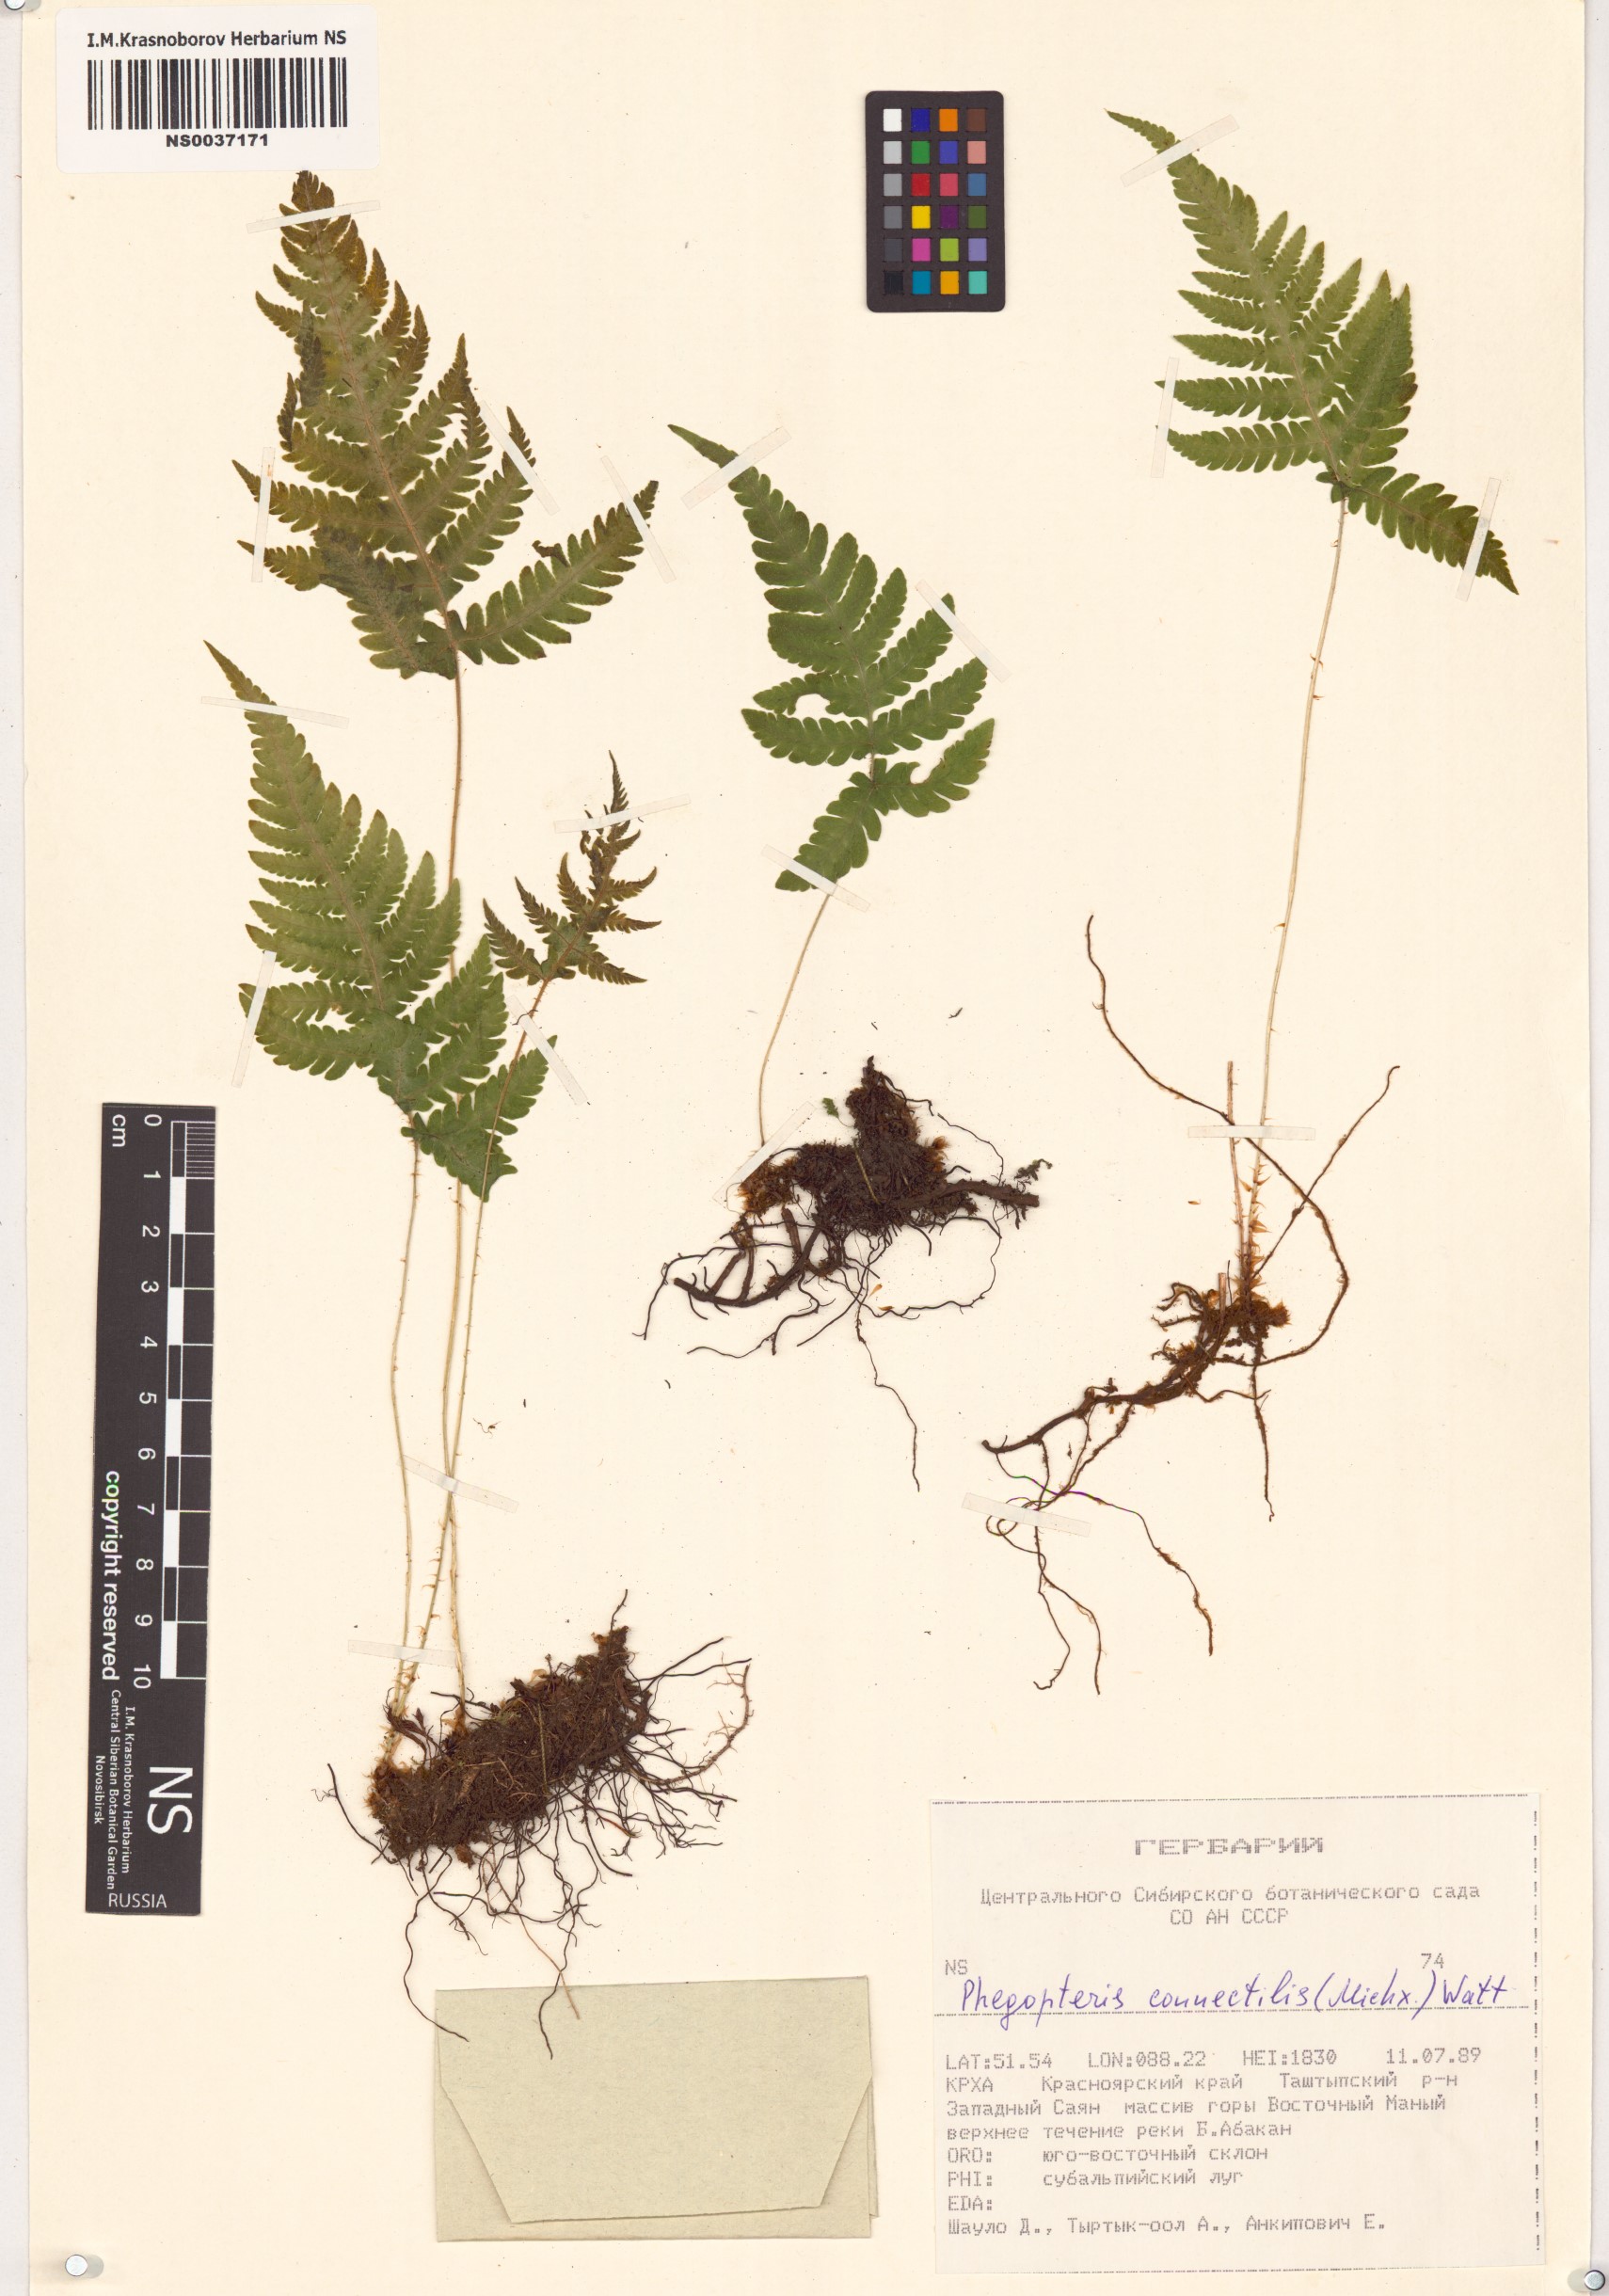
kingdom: Plantae
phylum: Tracheophyta
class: Polypodiopsida
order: Polypodiales
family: Thelypteridaceae
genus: Phegopteris
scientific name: Phegopteris connectilis
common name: Beech fern
